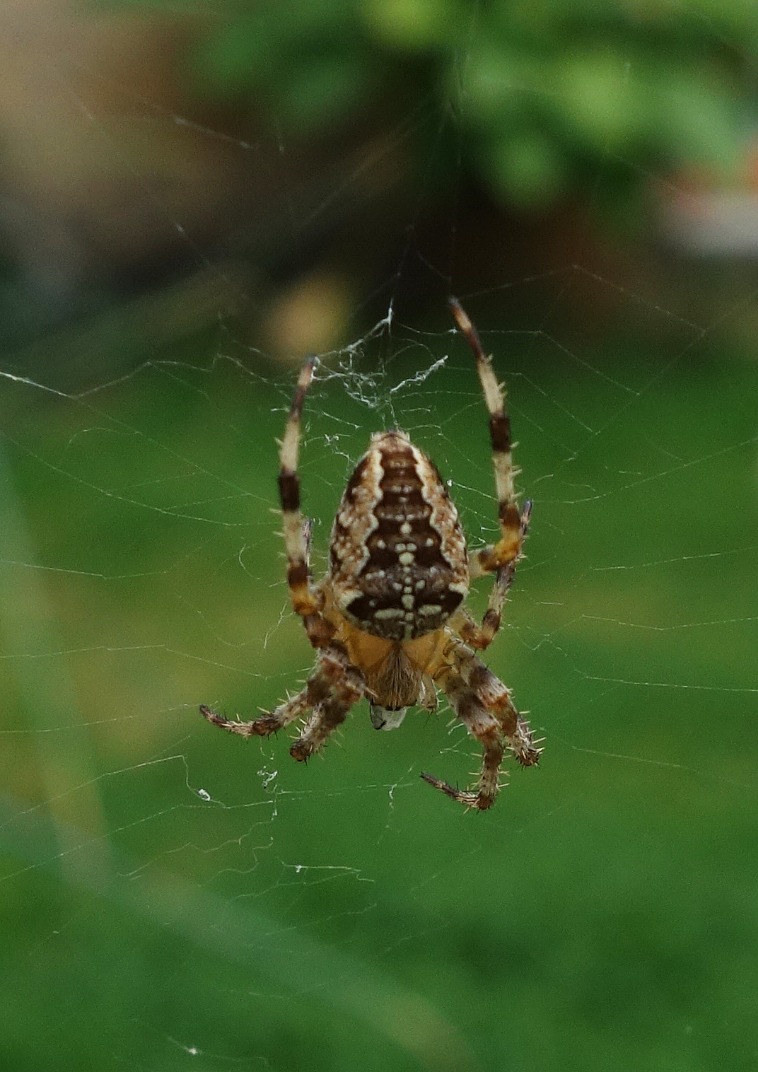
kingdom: Animalia
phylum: Arthropoda
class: Arachnida
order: Araneae
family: Araneidae
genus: Araneus
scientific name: Araneus diadematus
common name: Korsedderkop
